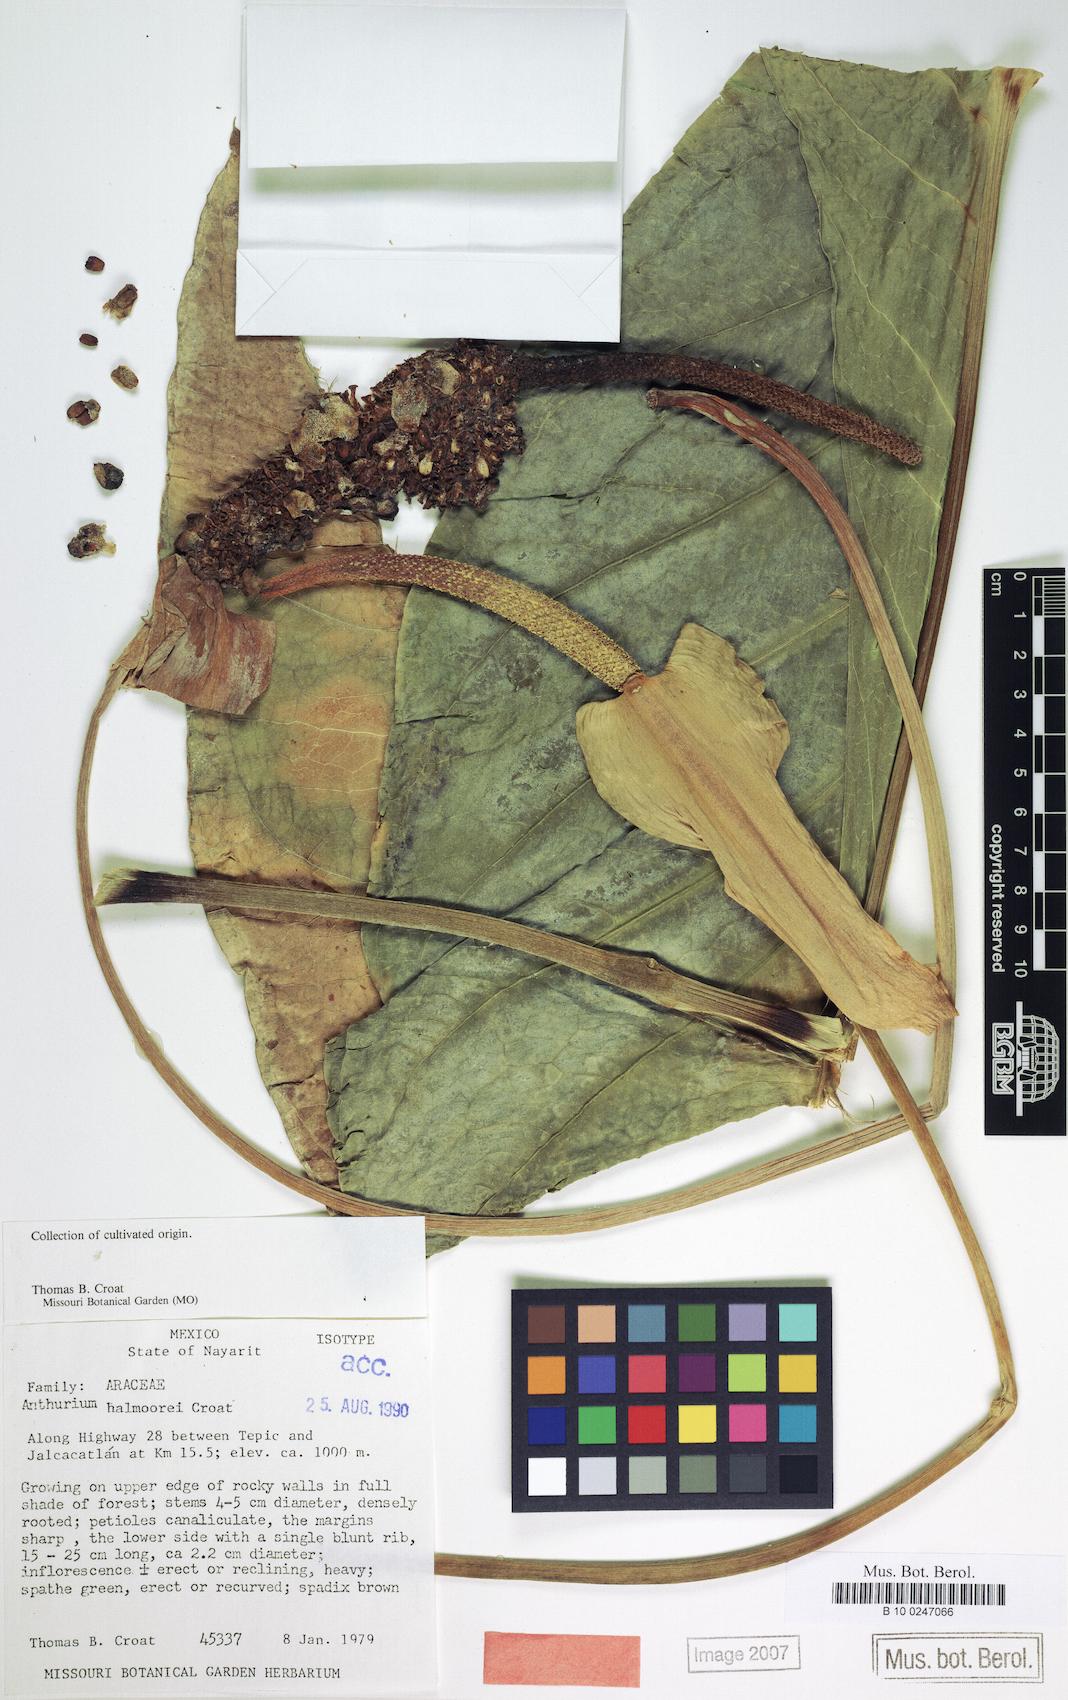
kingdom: Plantae
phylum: Tracheophyta
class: Liliopsida
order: Alismatales
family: Araceae
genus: Anthurium
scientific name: Anthurium halmoorei
